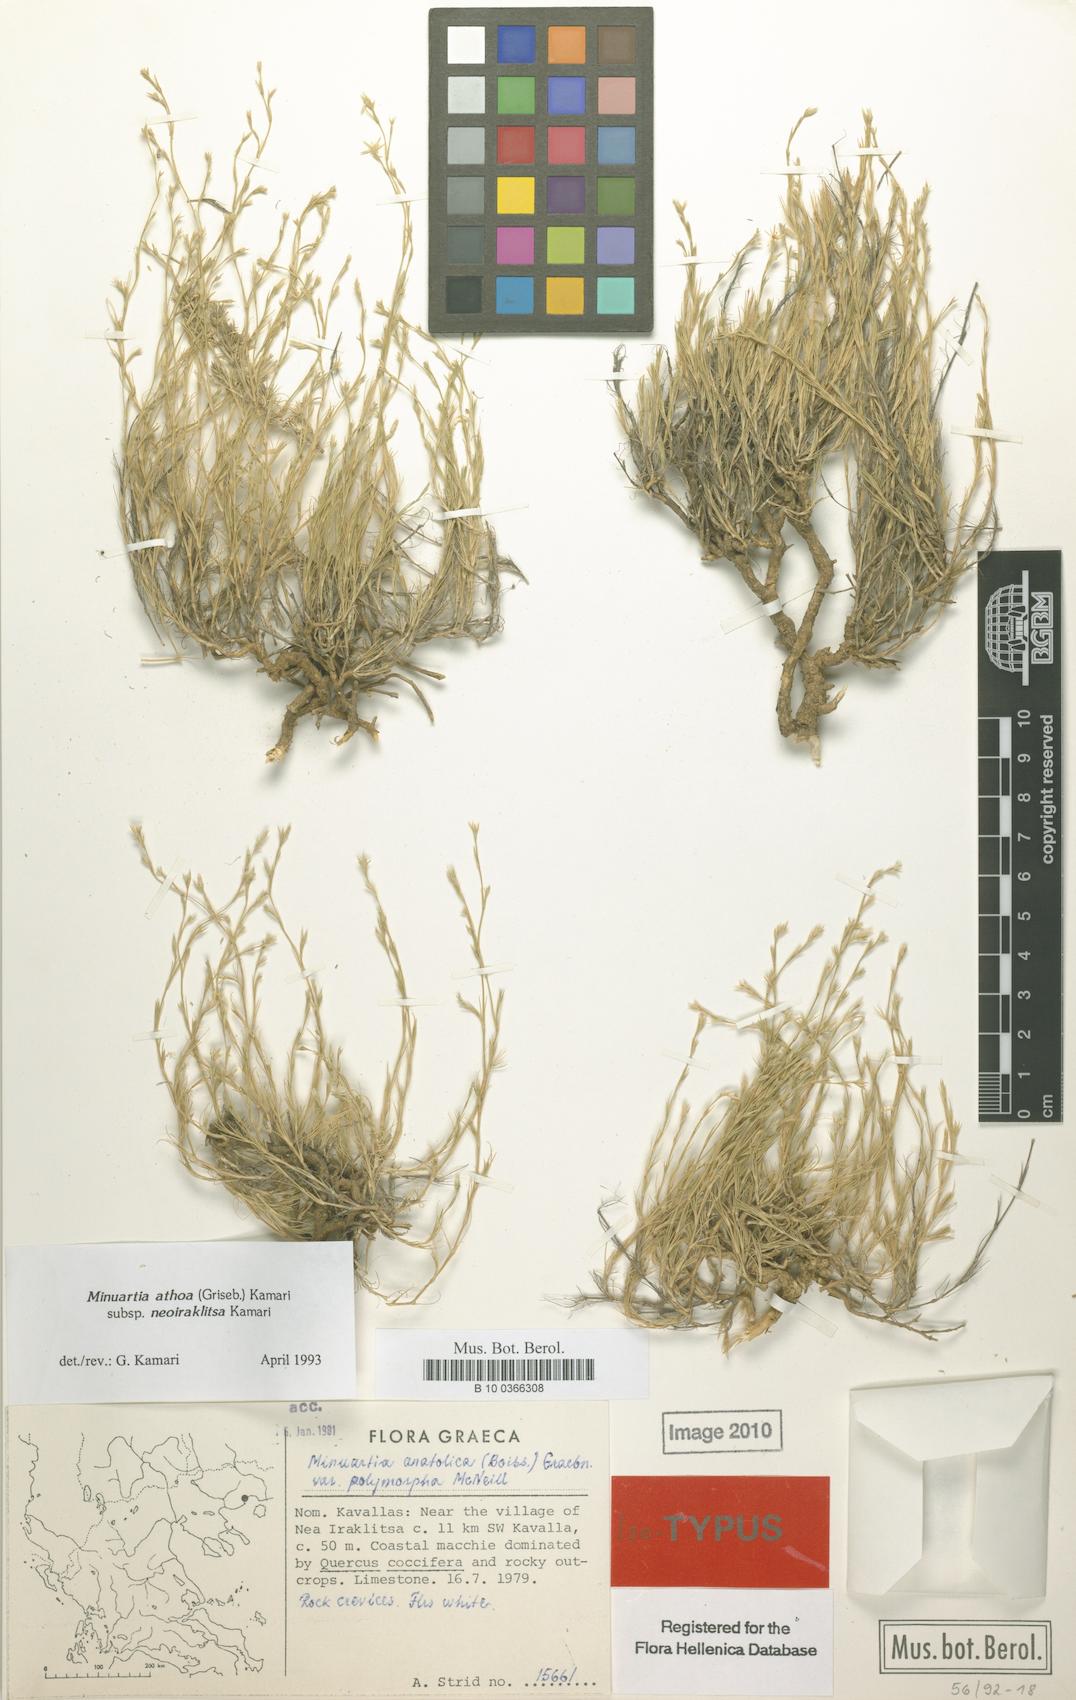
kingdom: Plantae
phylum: Tracheophyta
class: Magnoliopsida
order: Caryophyllales
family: Caryophyllaceae
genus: Minuartia
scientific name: Minuartia athoa
